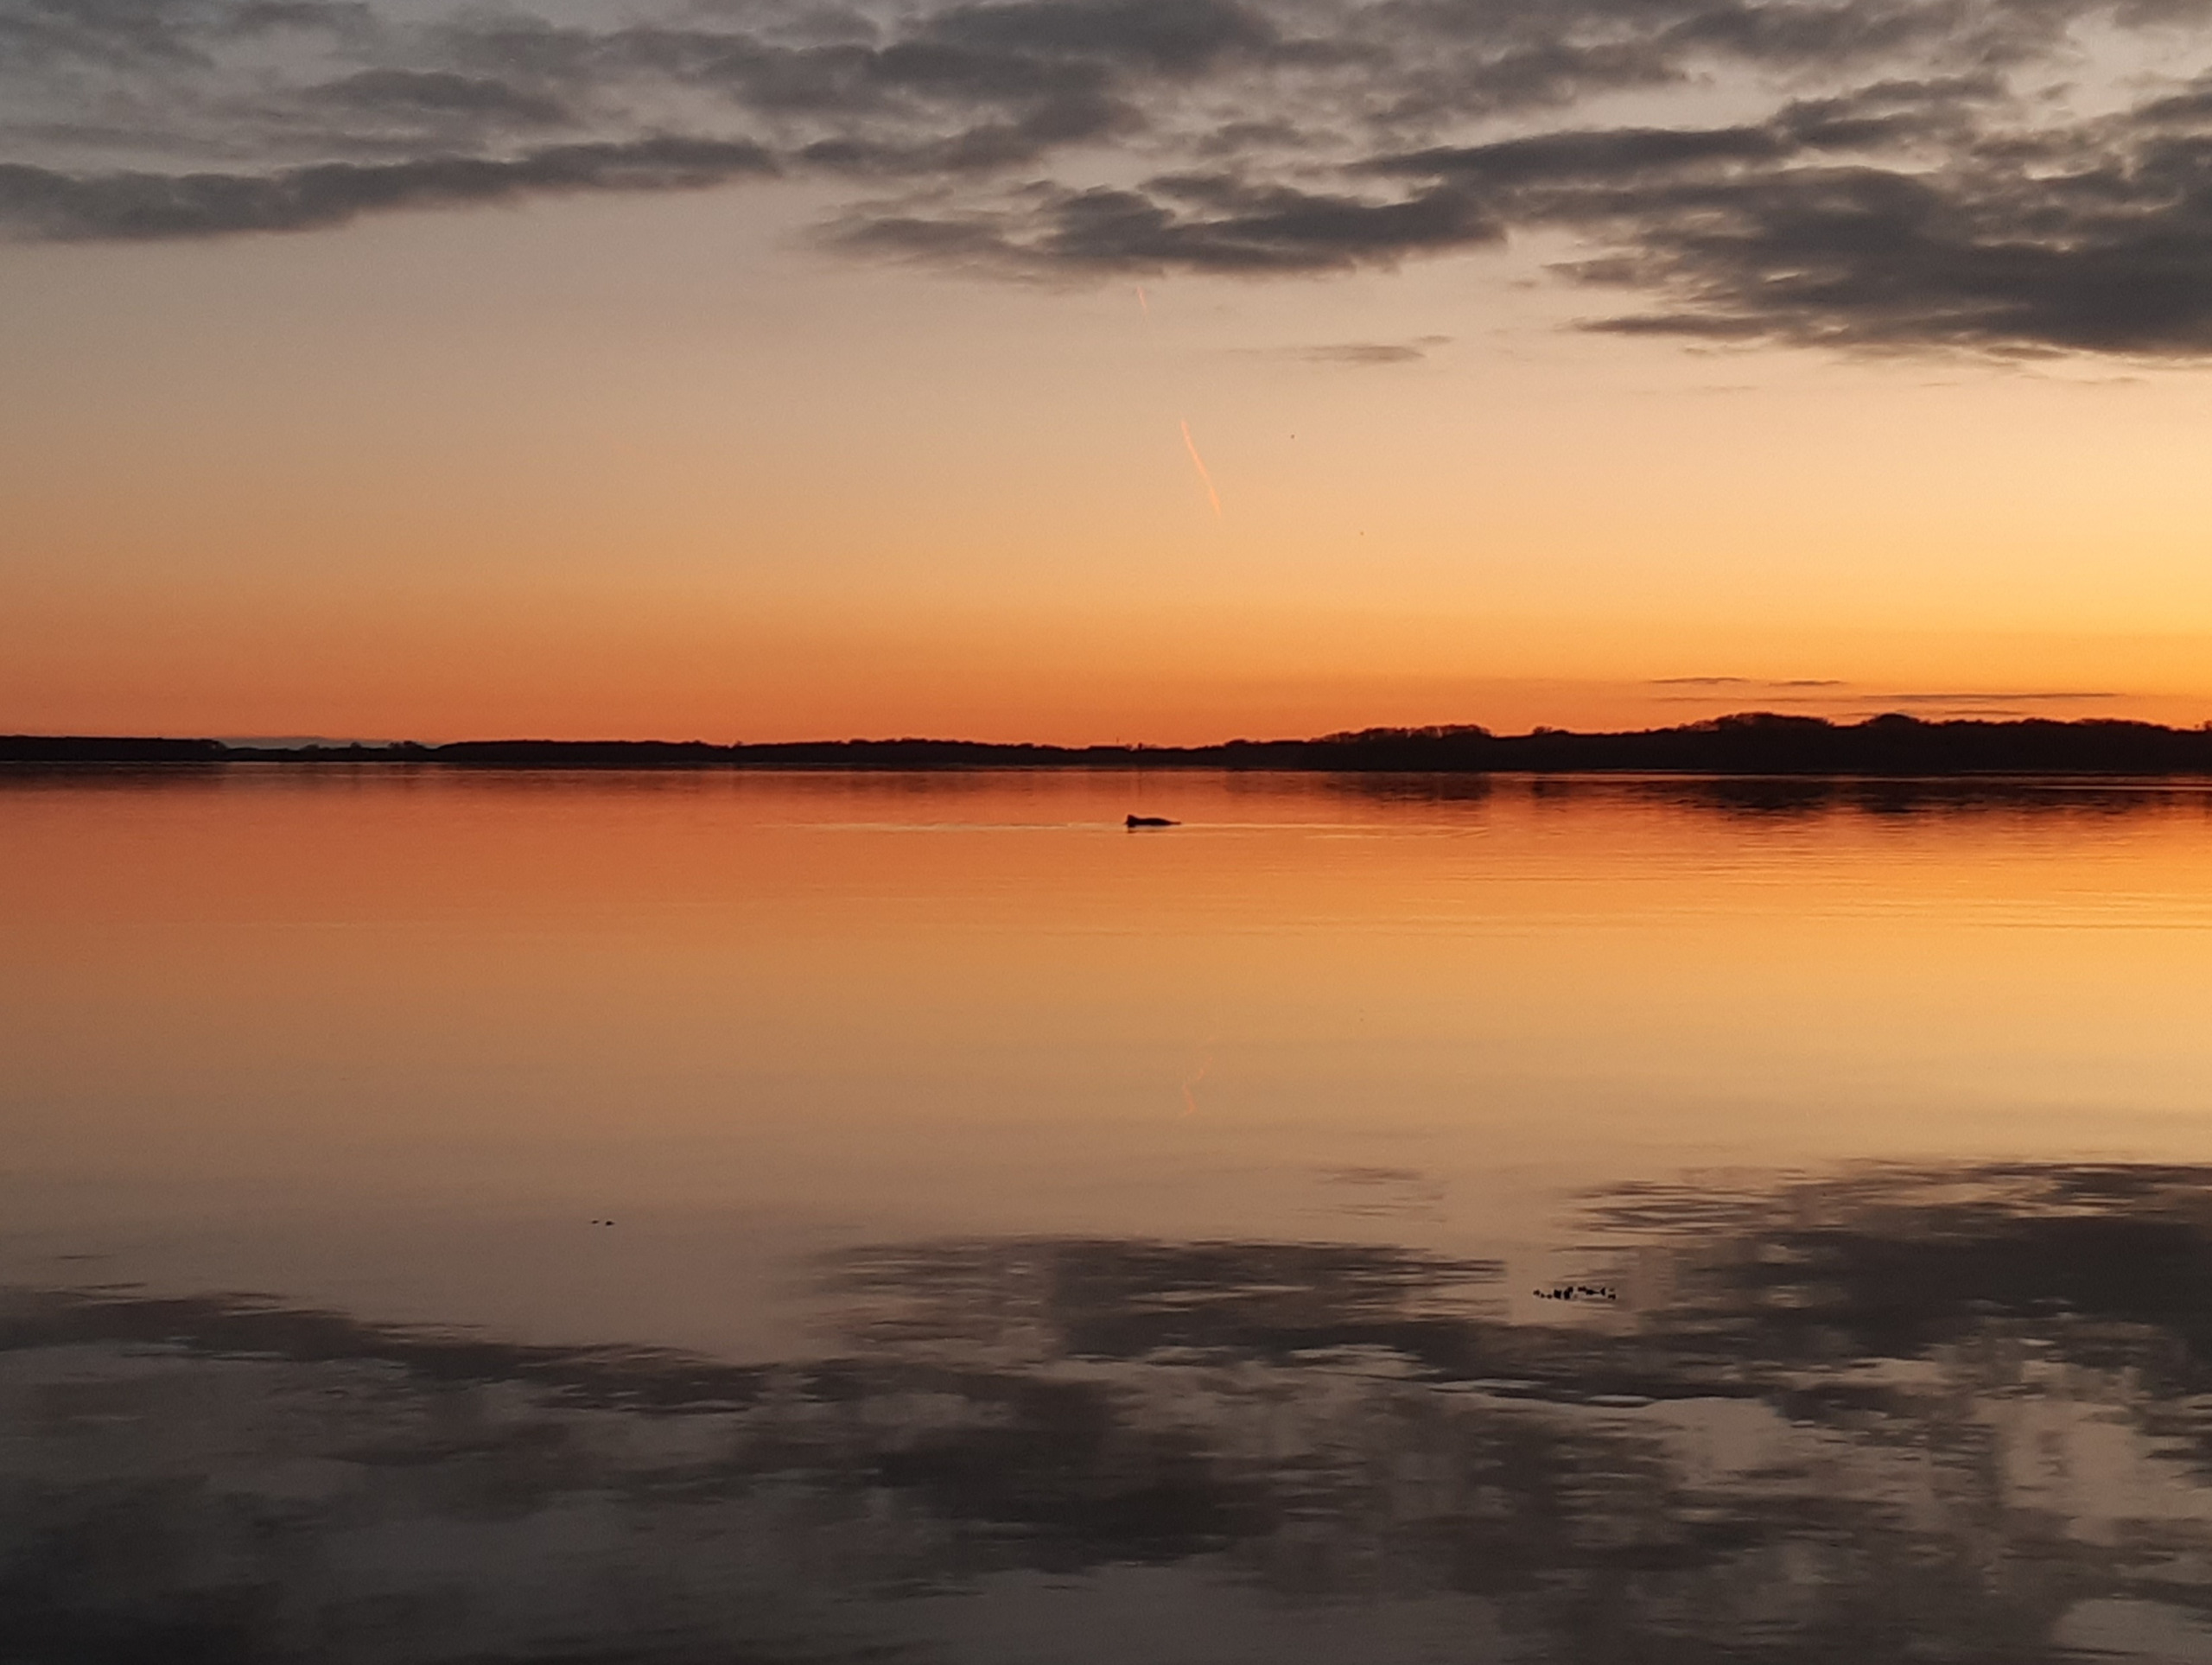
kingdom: Animalia
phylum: Chordata
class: Mammalia
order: Cetacea
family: Phocoenidae
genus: Phocoena
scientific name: Phocoena phocoena
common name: Marsvin
